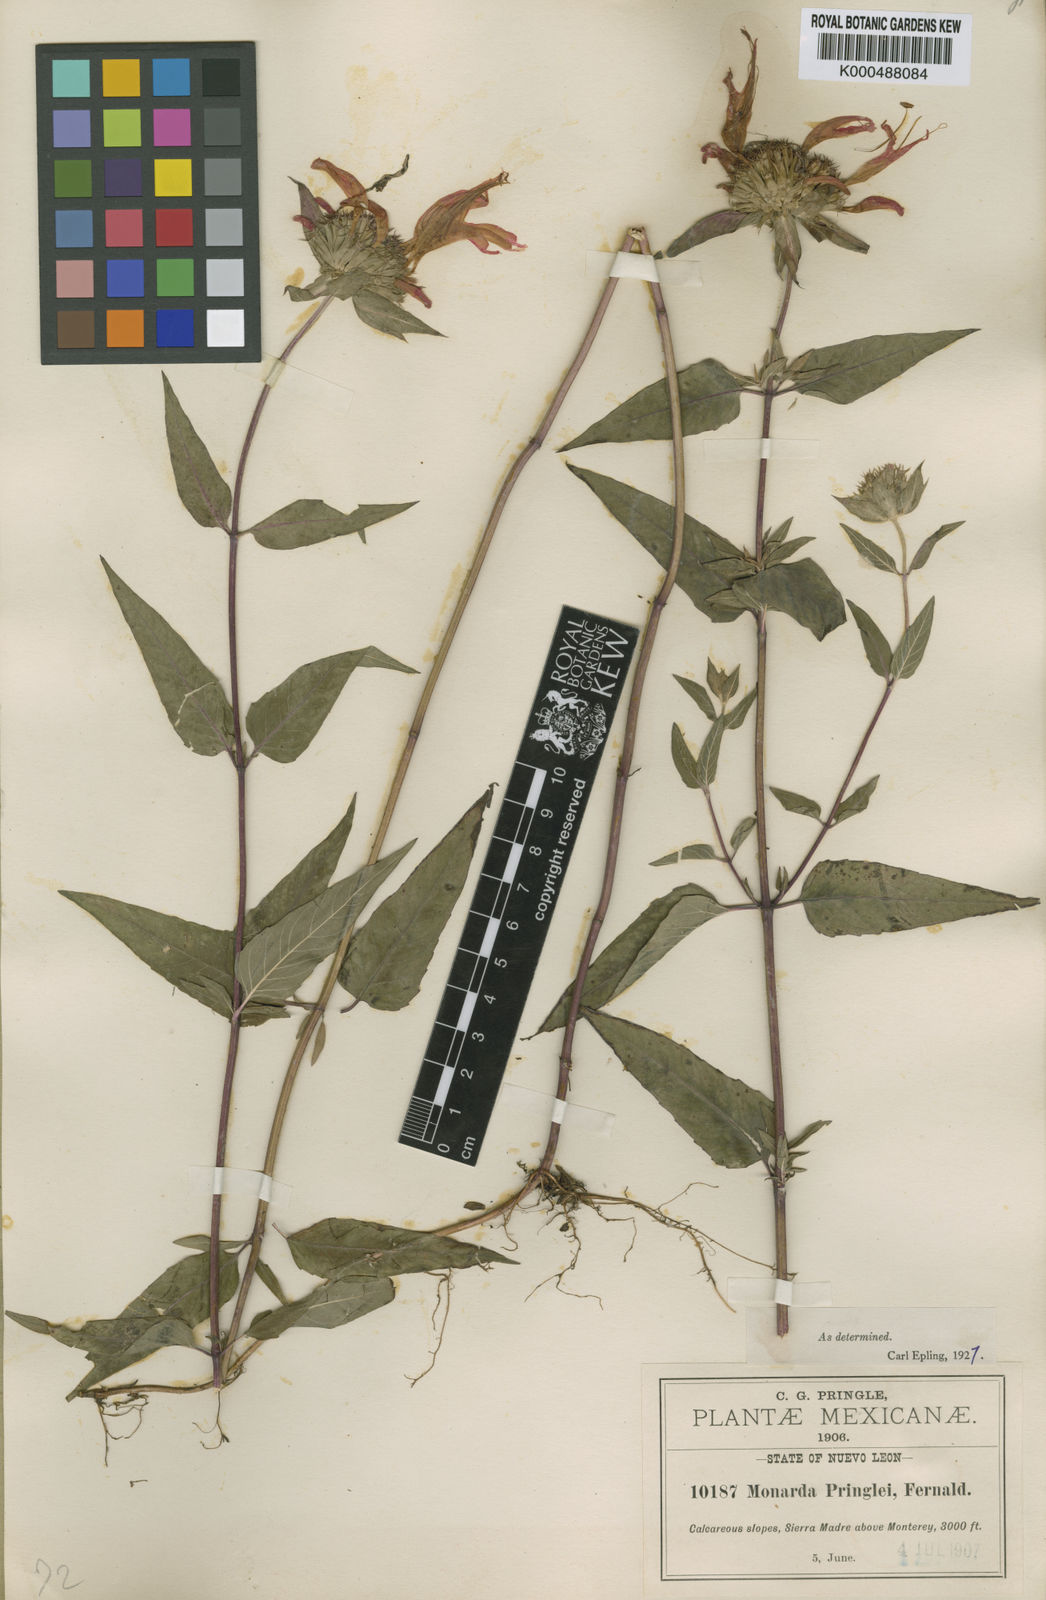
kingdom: Plantae
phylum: Tracheophyta
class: Magnoliopsida
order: Lamiales
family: Lamiaceae
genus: Monarda
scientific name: Monarda pringlei
